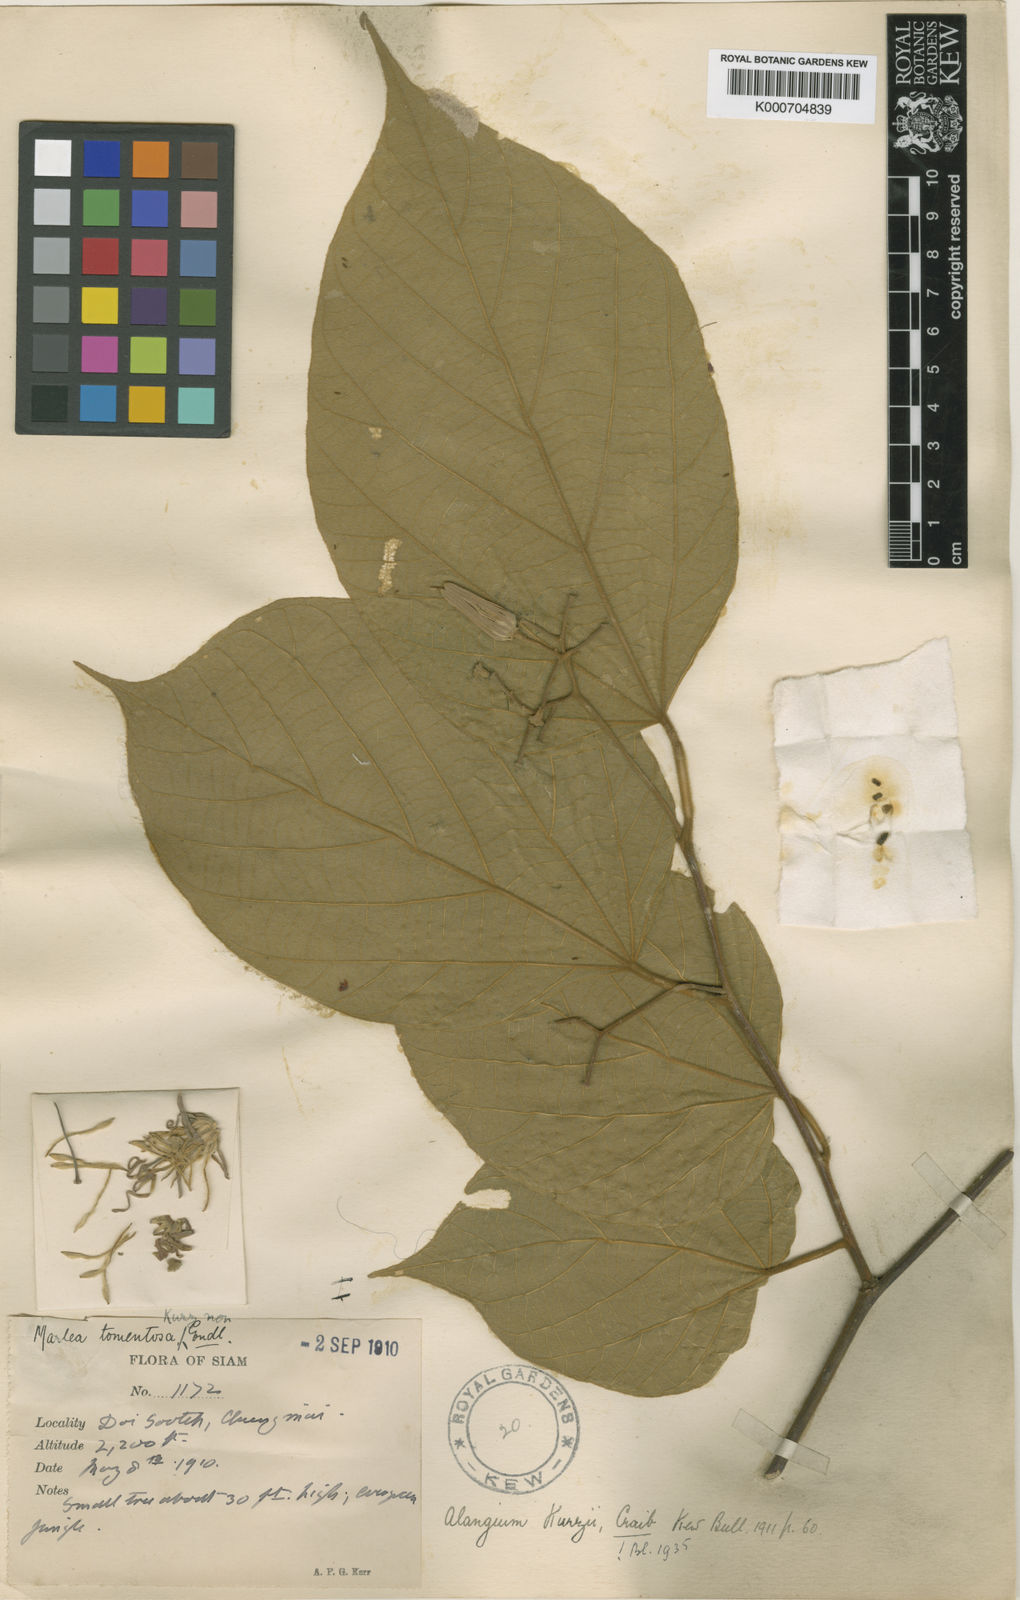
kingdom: Plantae
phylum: Tracheophyta
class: Magnoliopsida
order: Cornales
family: Cornaceae
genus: Alangium
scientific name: Alangium kurzii
